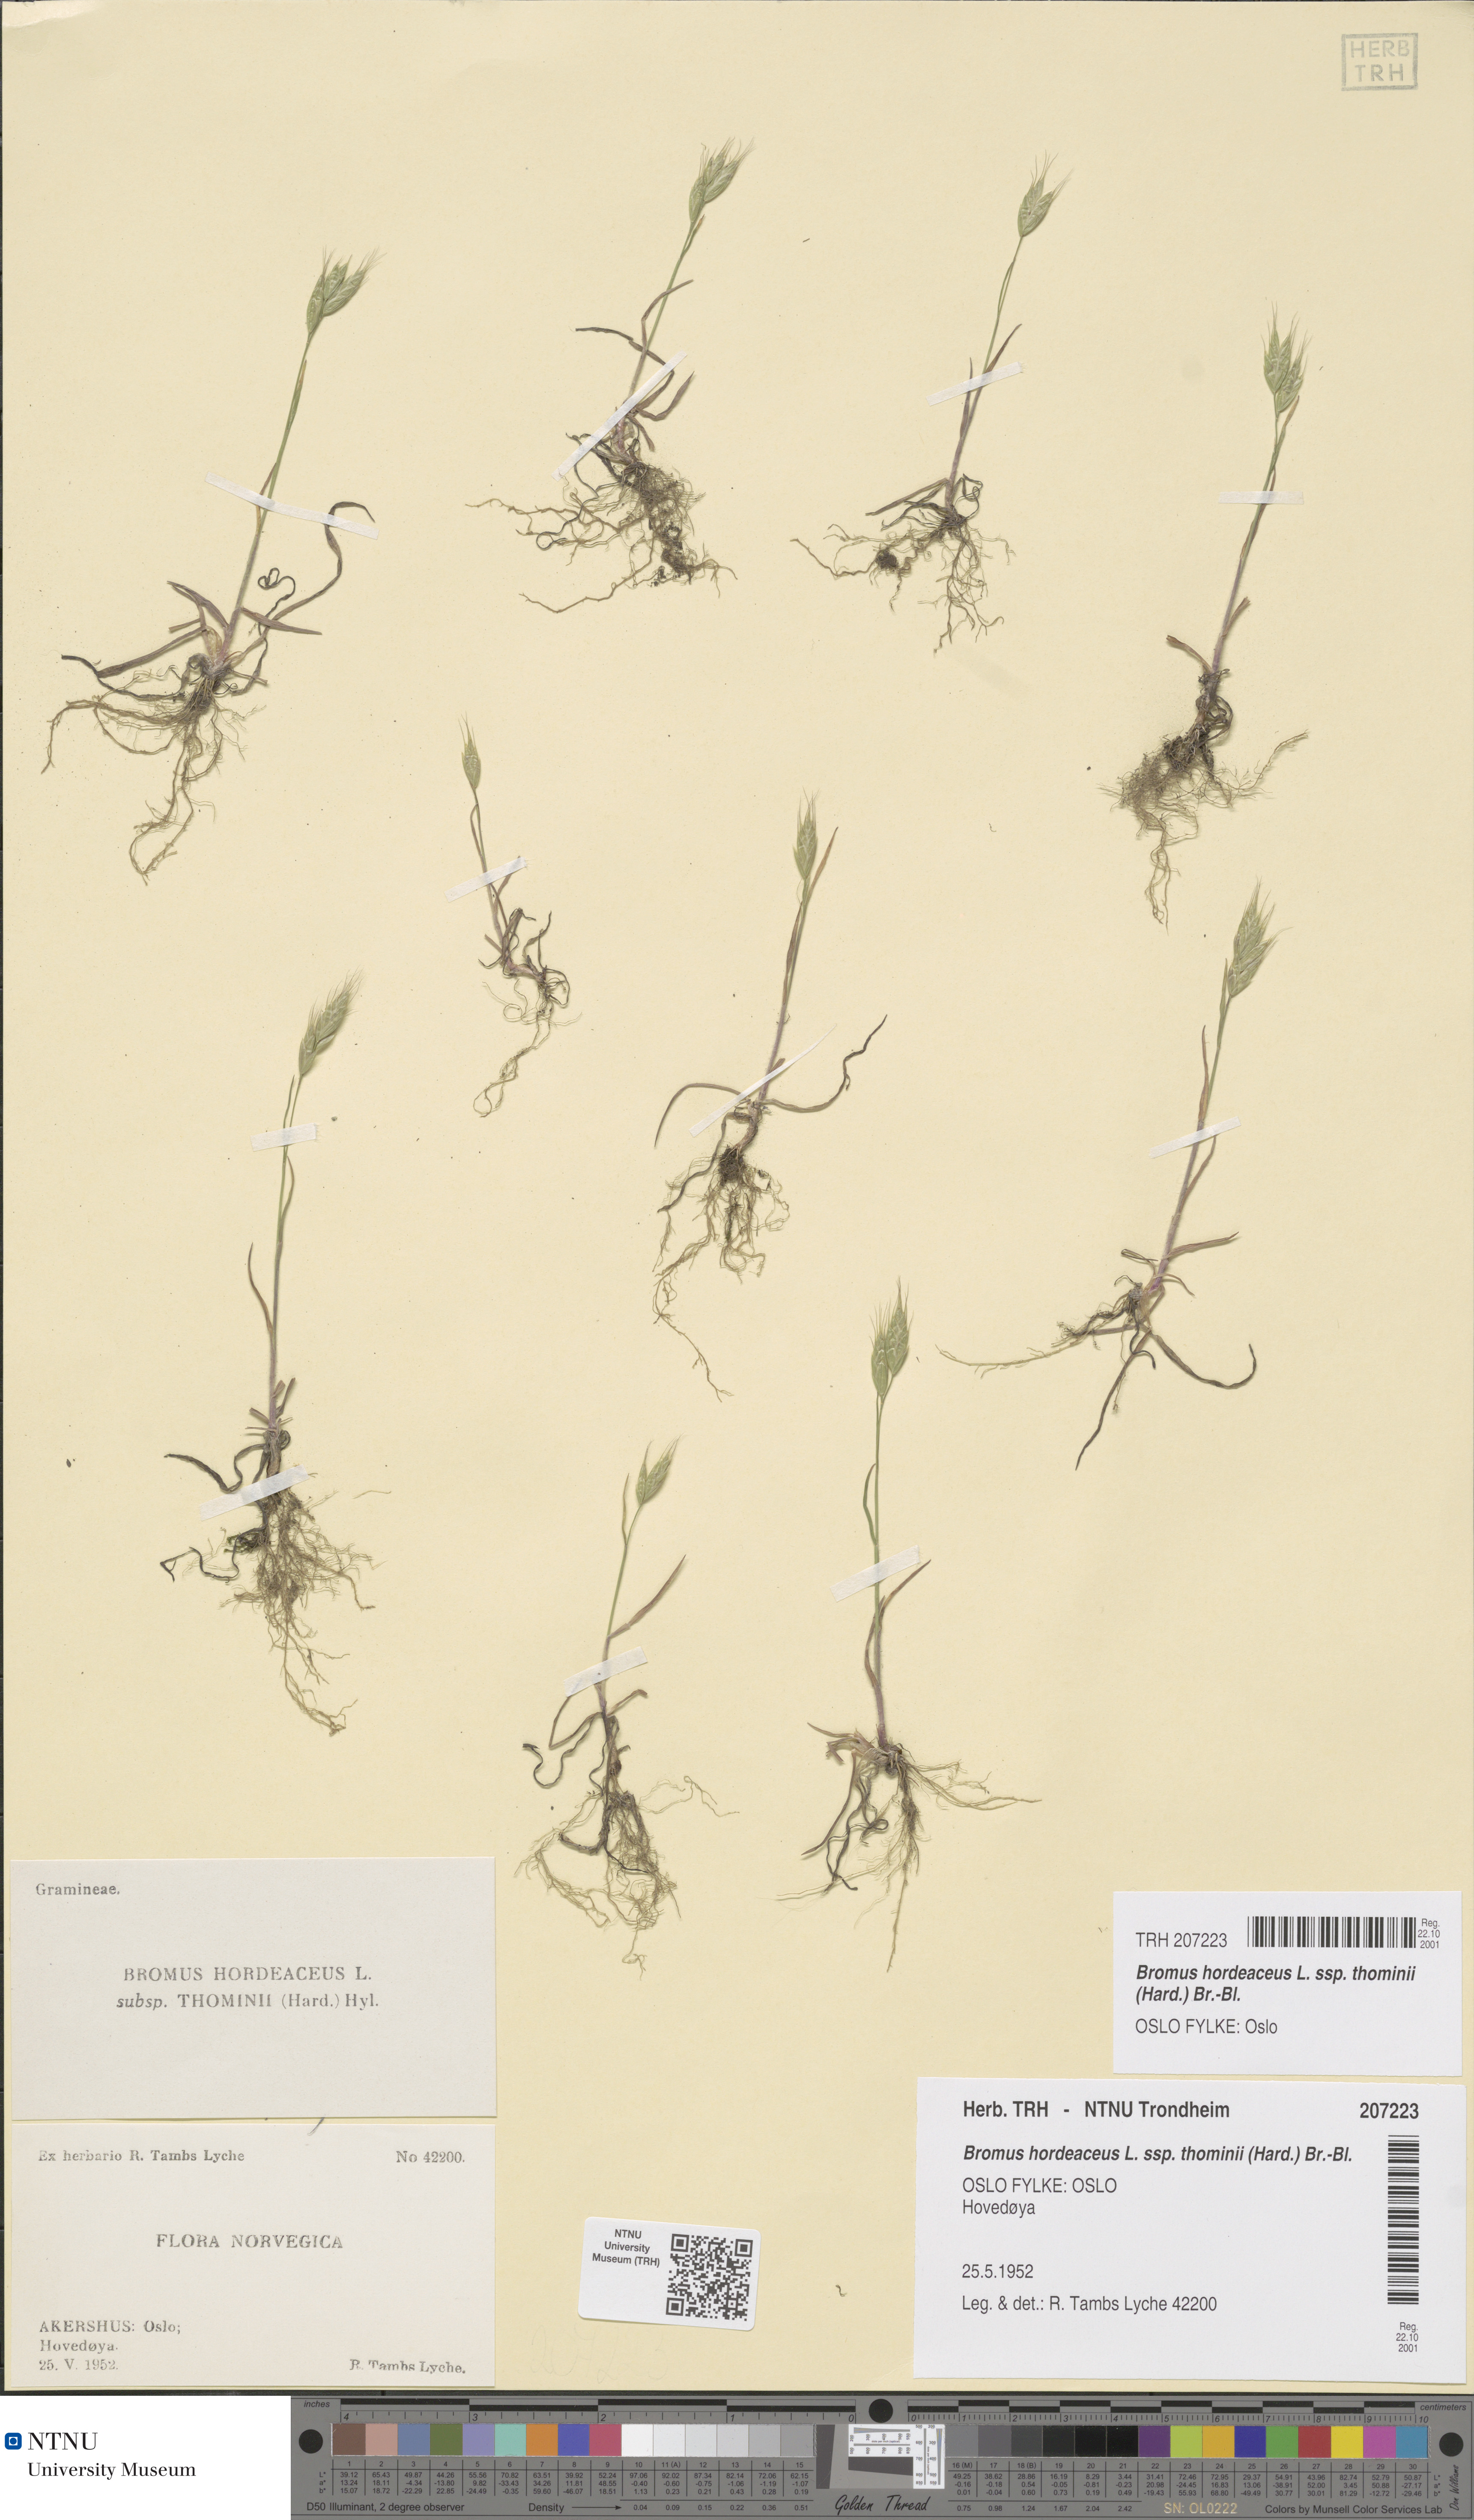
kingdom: Plantae
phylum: Tracheophyta
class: Liliopsida
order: Poales
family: Poaceae
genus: Bromus
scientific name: Bromus hordeaceus
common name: Soft brome
